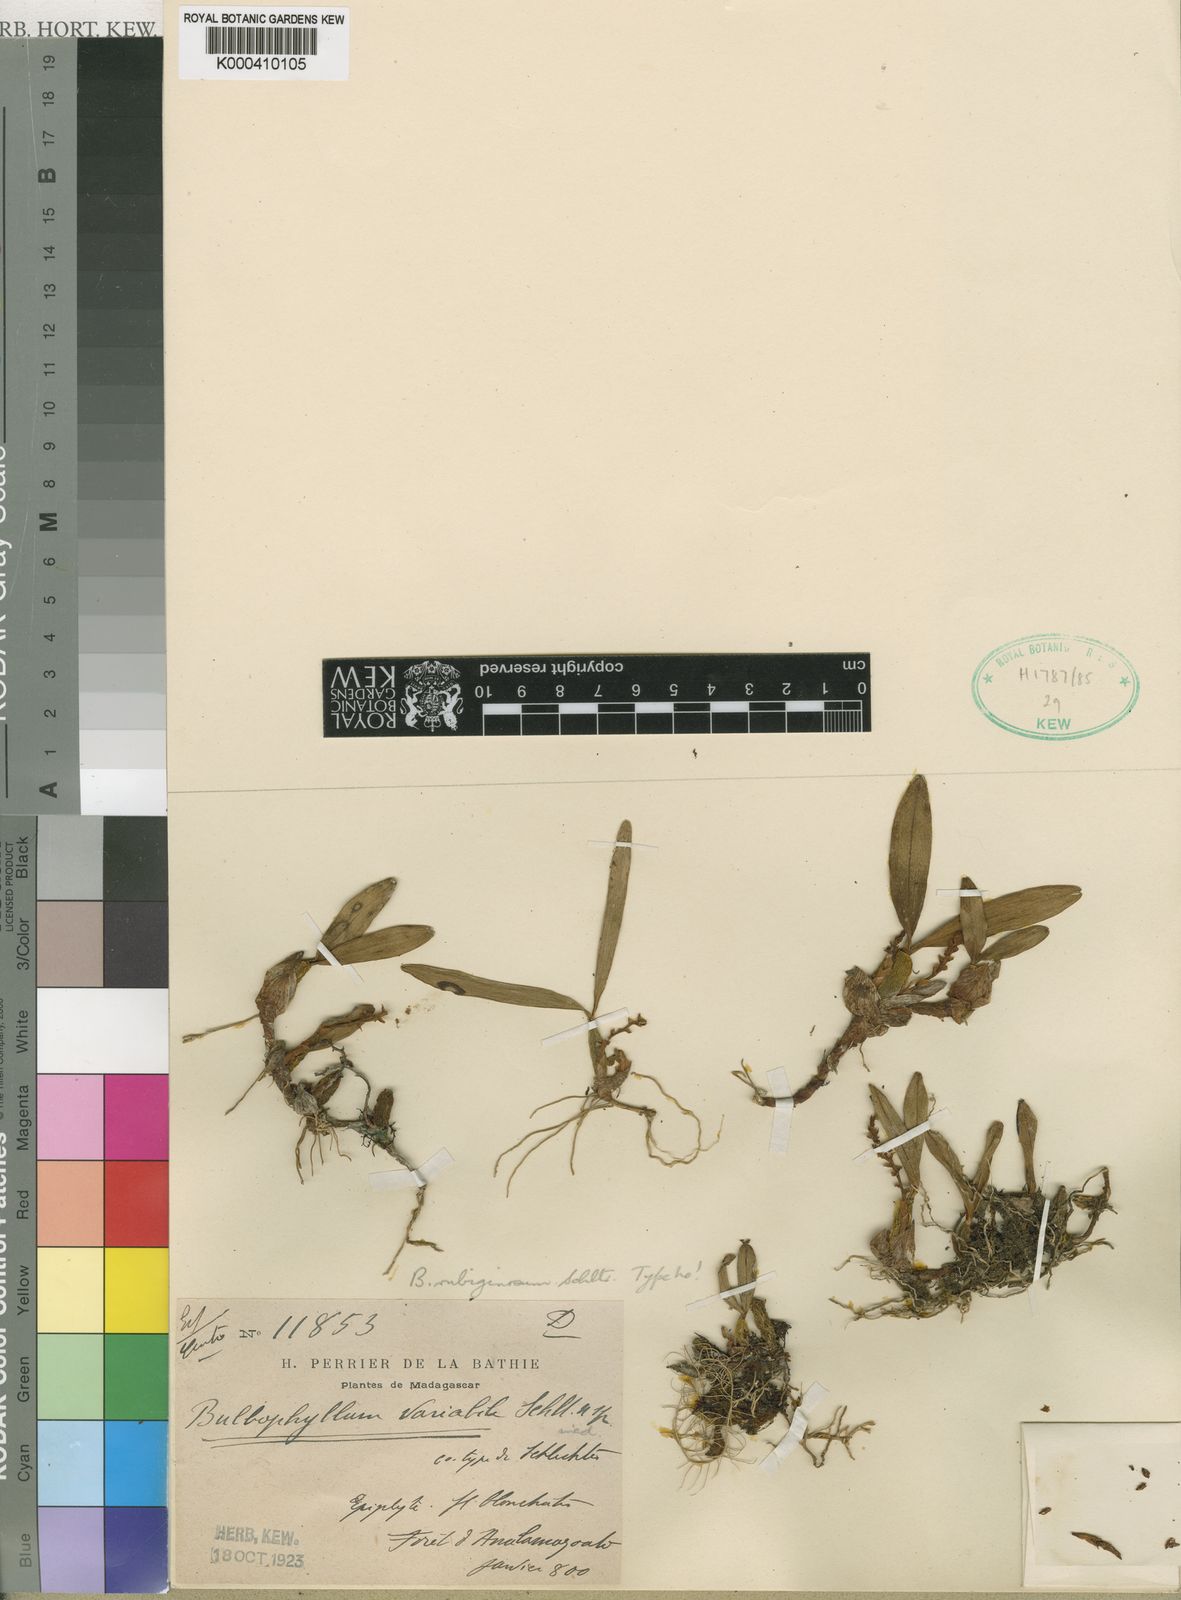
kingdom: Plantae
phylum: Tracheophyta
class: Liliopsida
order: Asparagales
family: Orchidaceae
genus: Bulbophyllum
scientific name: Bulbophyllum rubiginosum
